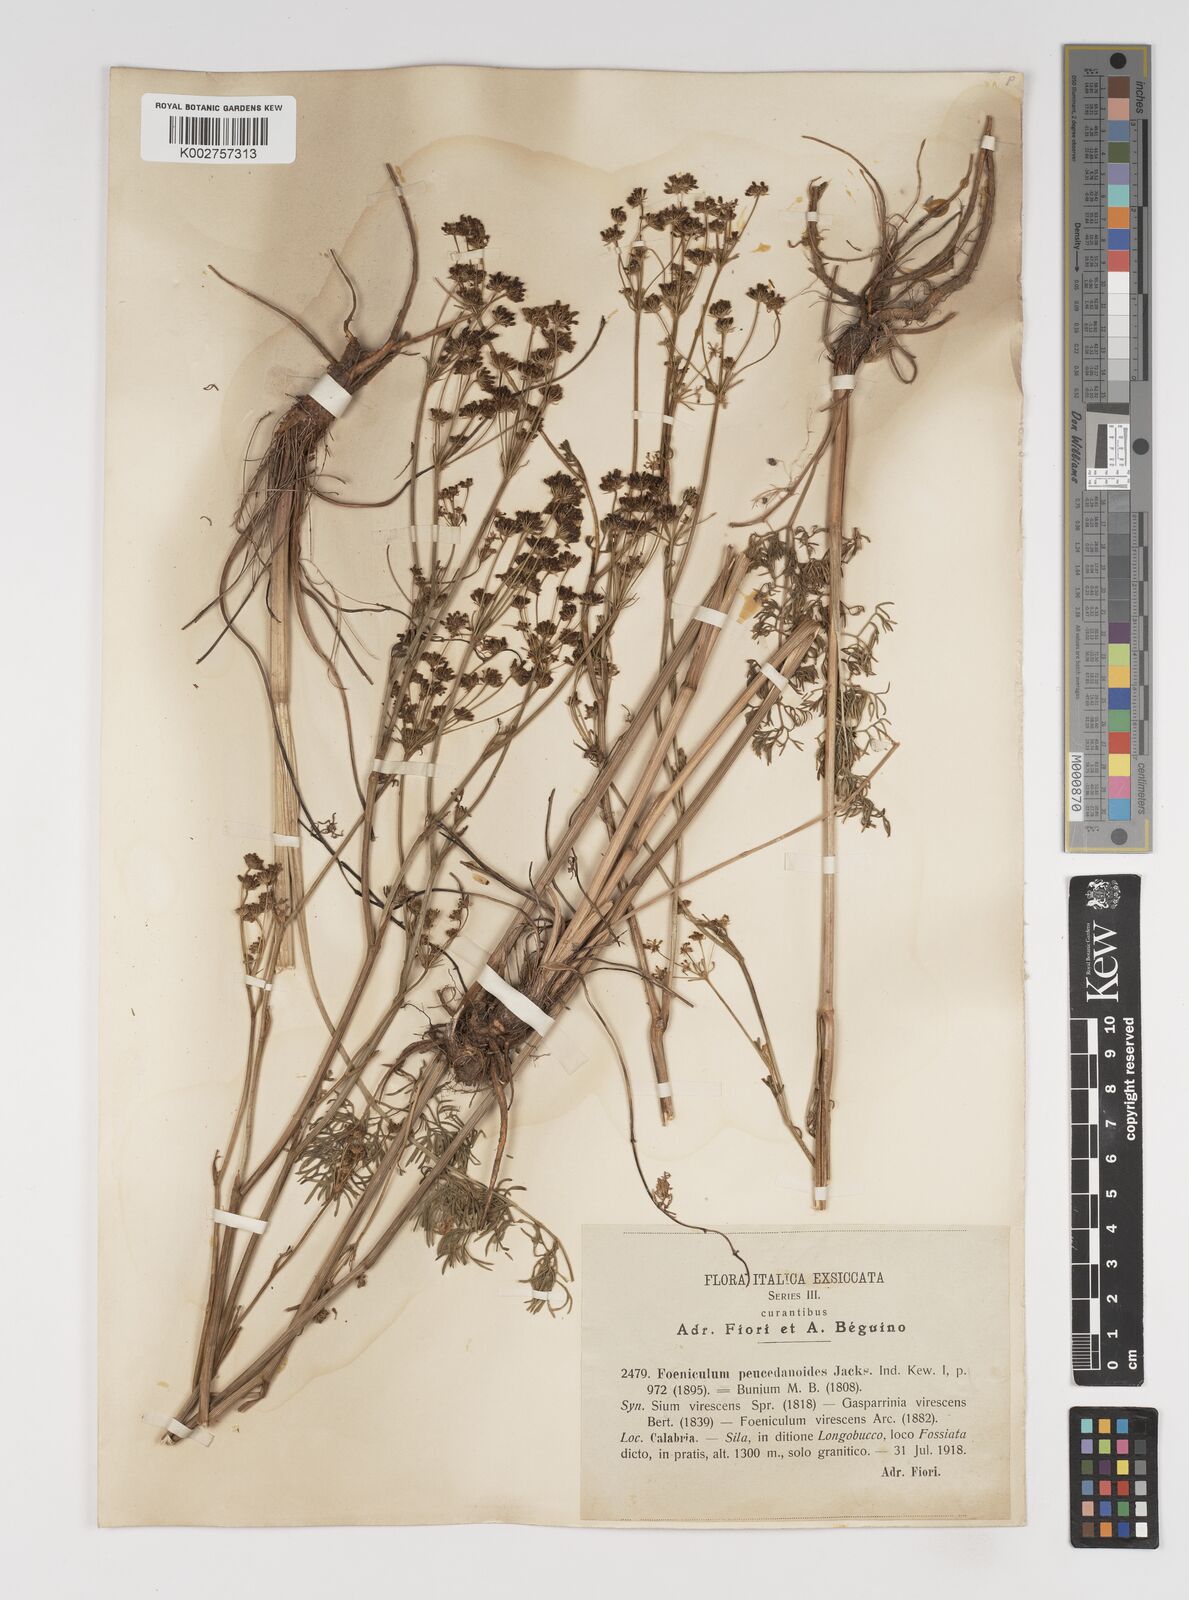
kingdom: Plantae
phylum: Tracheophyta
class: Magnoliopsida
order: Apiales
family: Apiaceae
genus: Gasparinia
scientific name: Gasparinia peucedanoides
